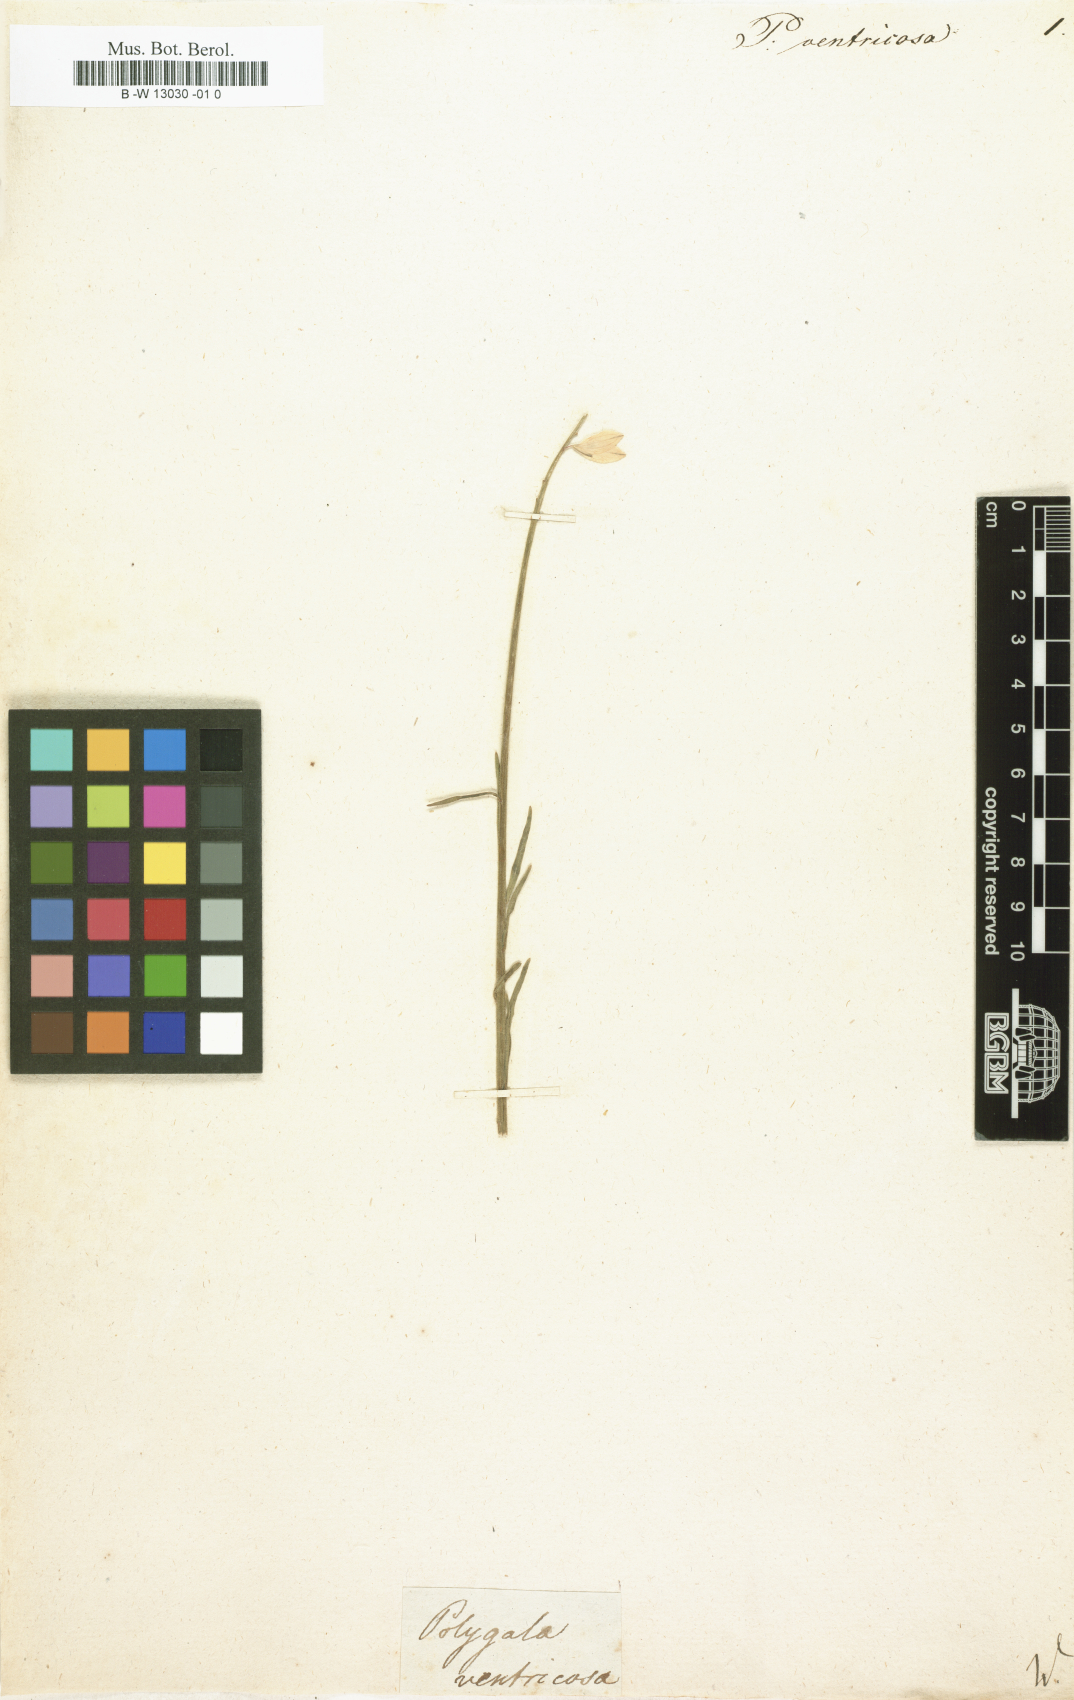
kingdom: Plantae
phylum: Tracheophyta
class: Magnoliopsida
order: Fabales
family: Polygalaceae
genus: Polygala
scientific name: Polygala
